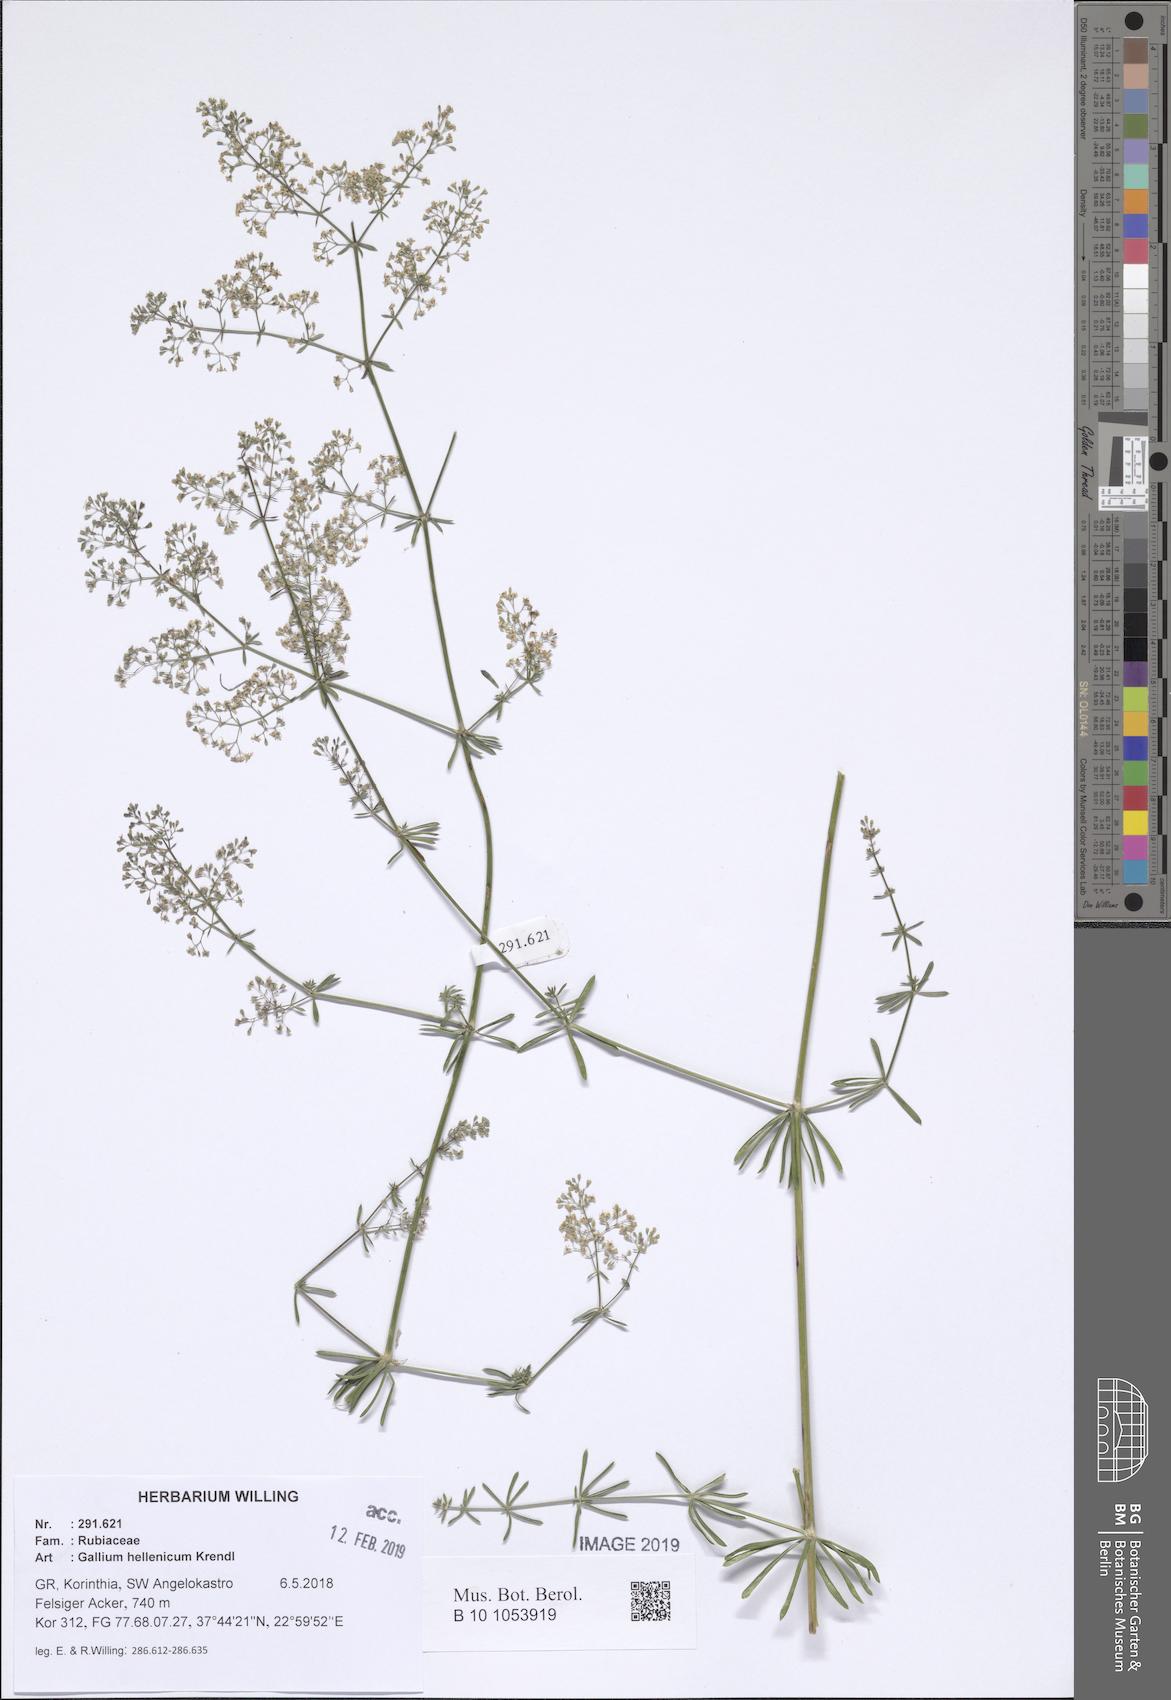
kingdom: Plantae
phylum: Tracheophyta
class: Magnoliopsida
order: Gentianales
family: Rubiaceae
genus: Galium
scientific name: Galium hellenicum
